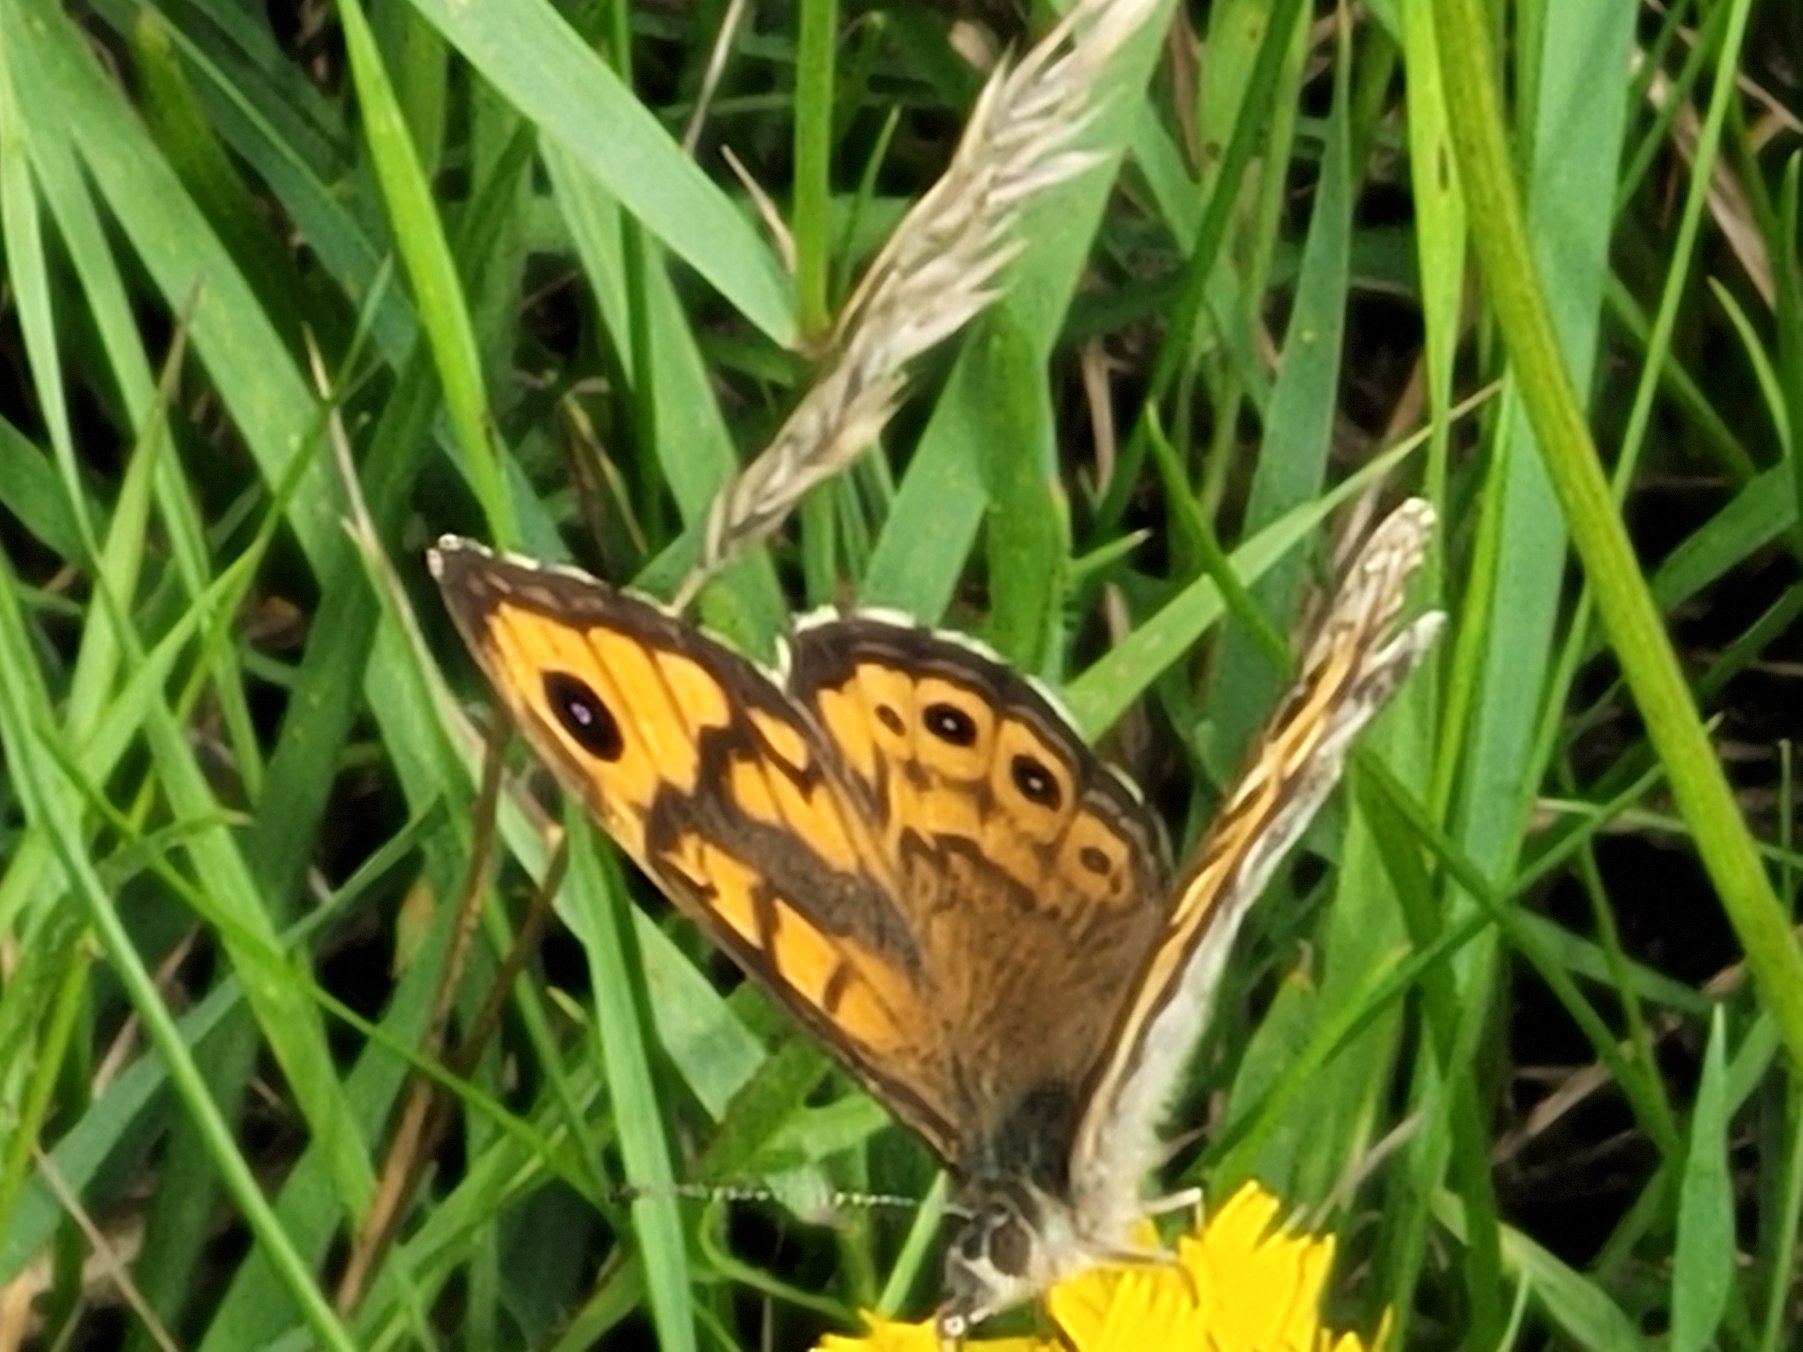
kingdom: Animalia
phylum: Arthropoda
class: Insecta
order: Lepidoptera
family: Nymphalidae
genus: Pararge
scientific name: Pararge Lasiommata megera
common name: Vejrandøje
